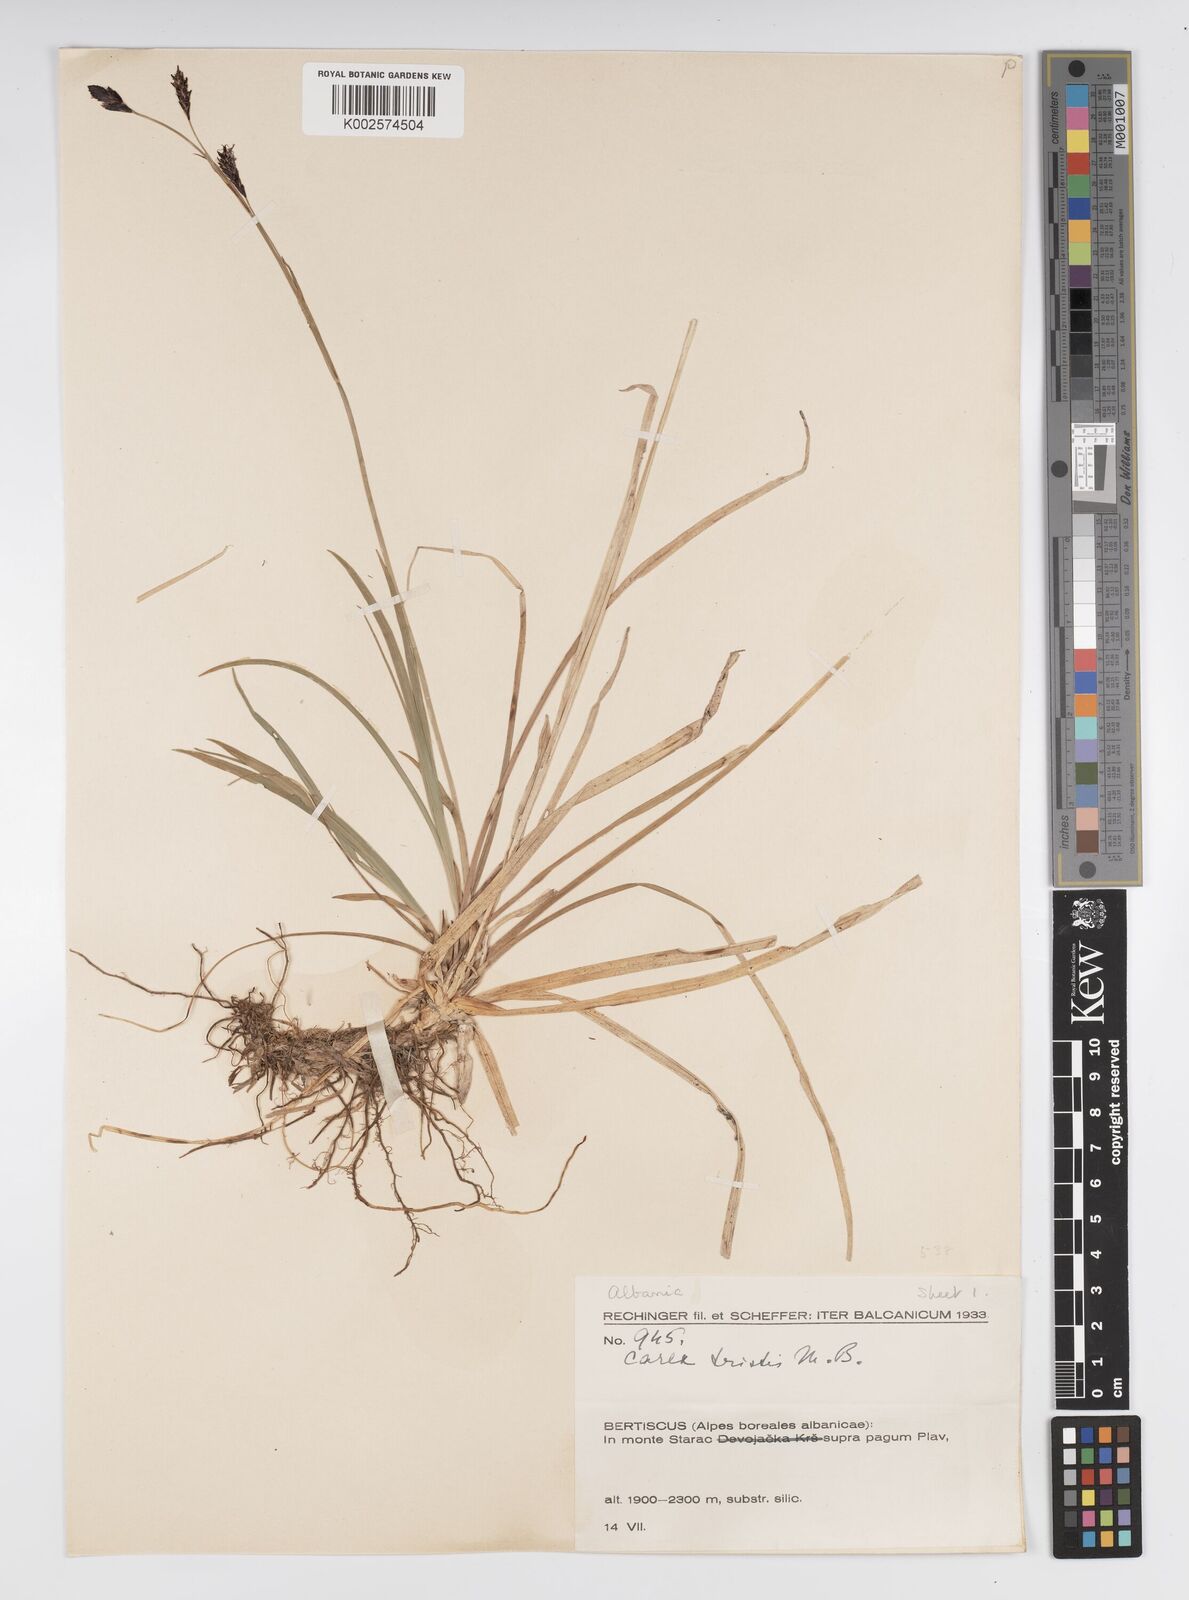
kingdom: Plantae
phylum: Tracheophyta
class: Liliopsida
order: Poales
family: Cyperaceae
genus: Carex
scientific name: Carex sempervirens
